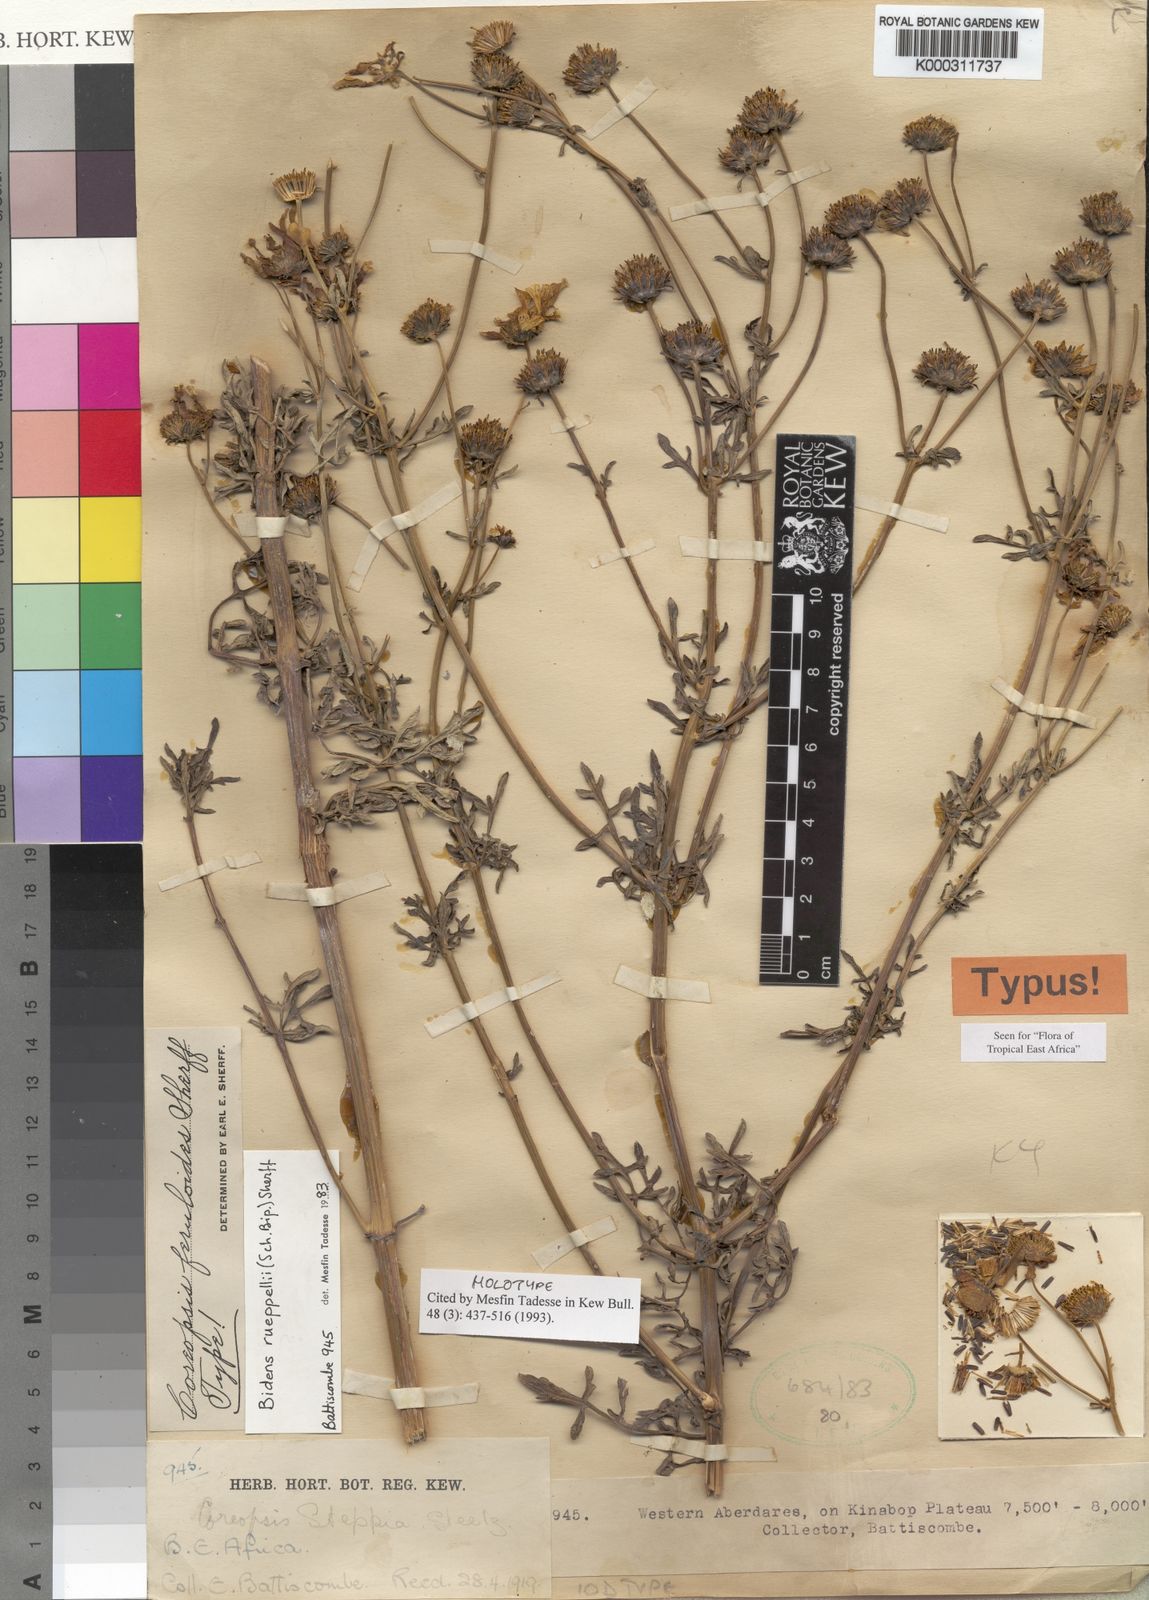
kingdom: Plantae
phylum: Tracheophyta
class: Magnoliopsida
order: Asterales
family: Asteraceae
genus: Bidens
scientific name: Bidens rueppellii
